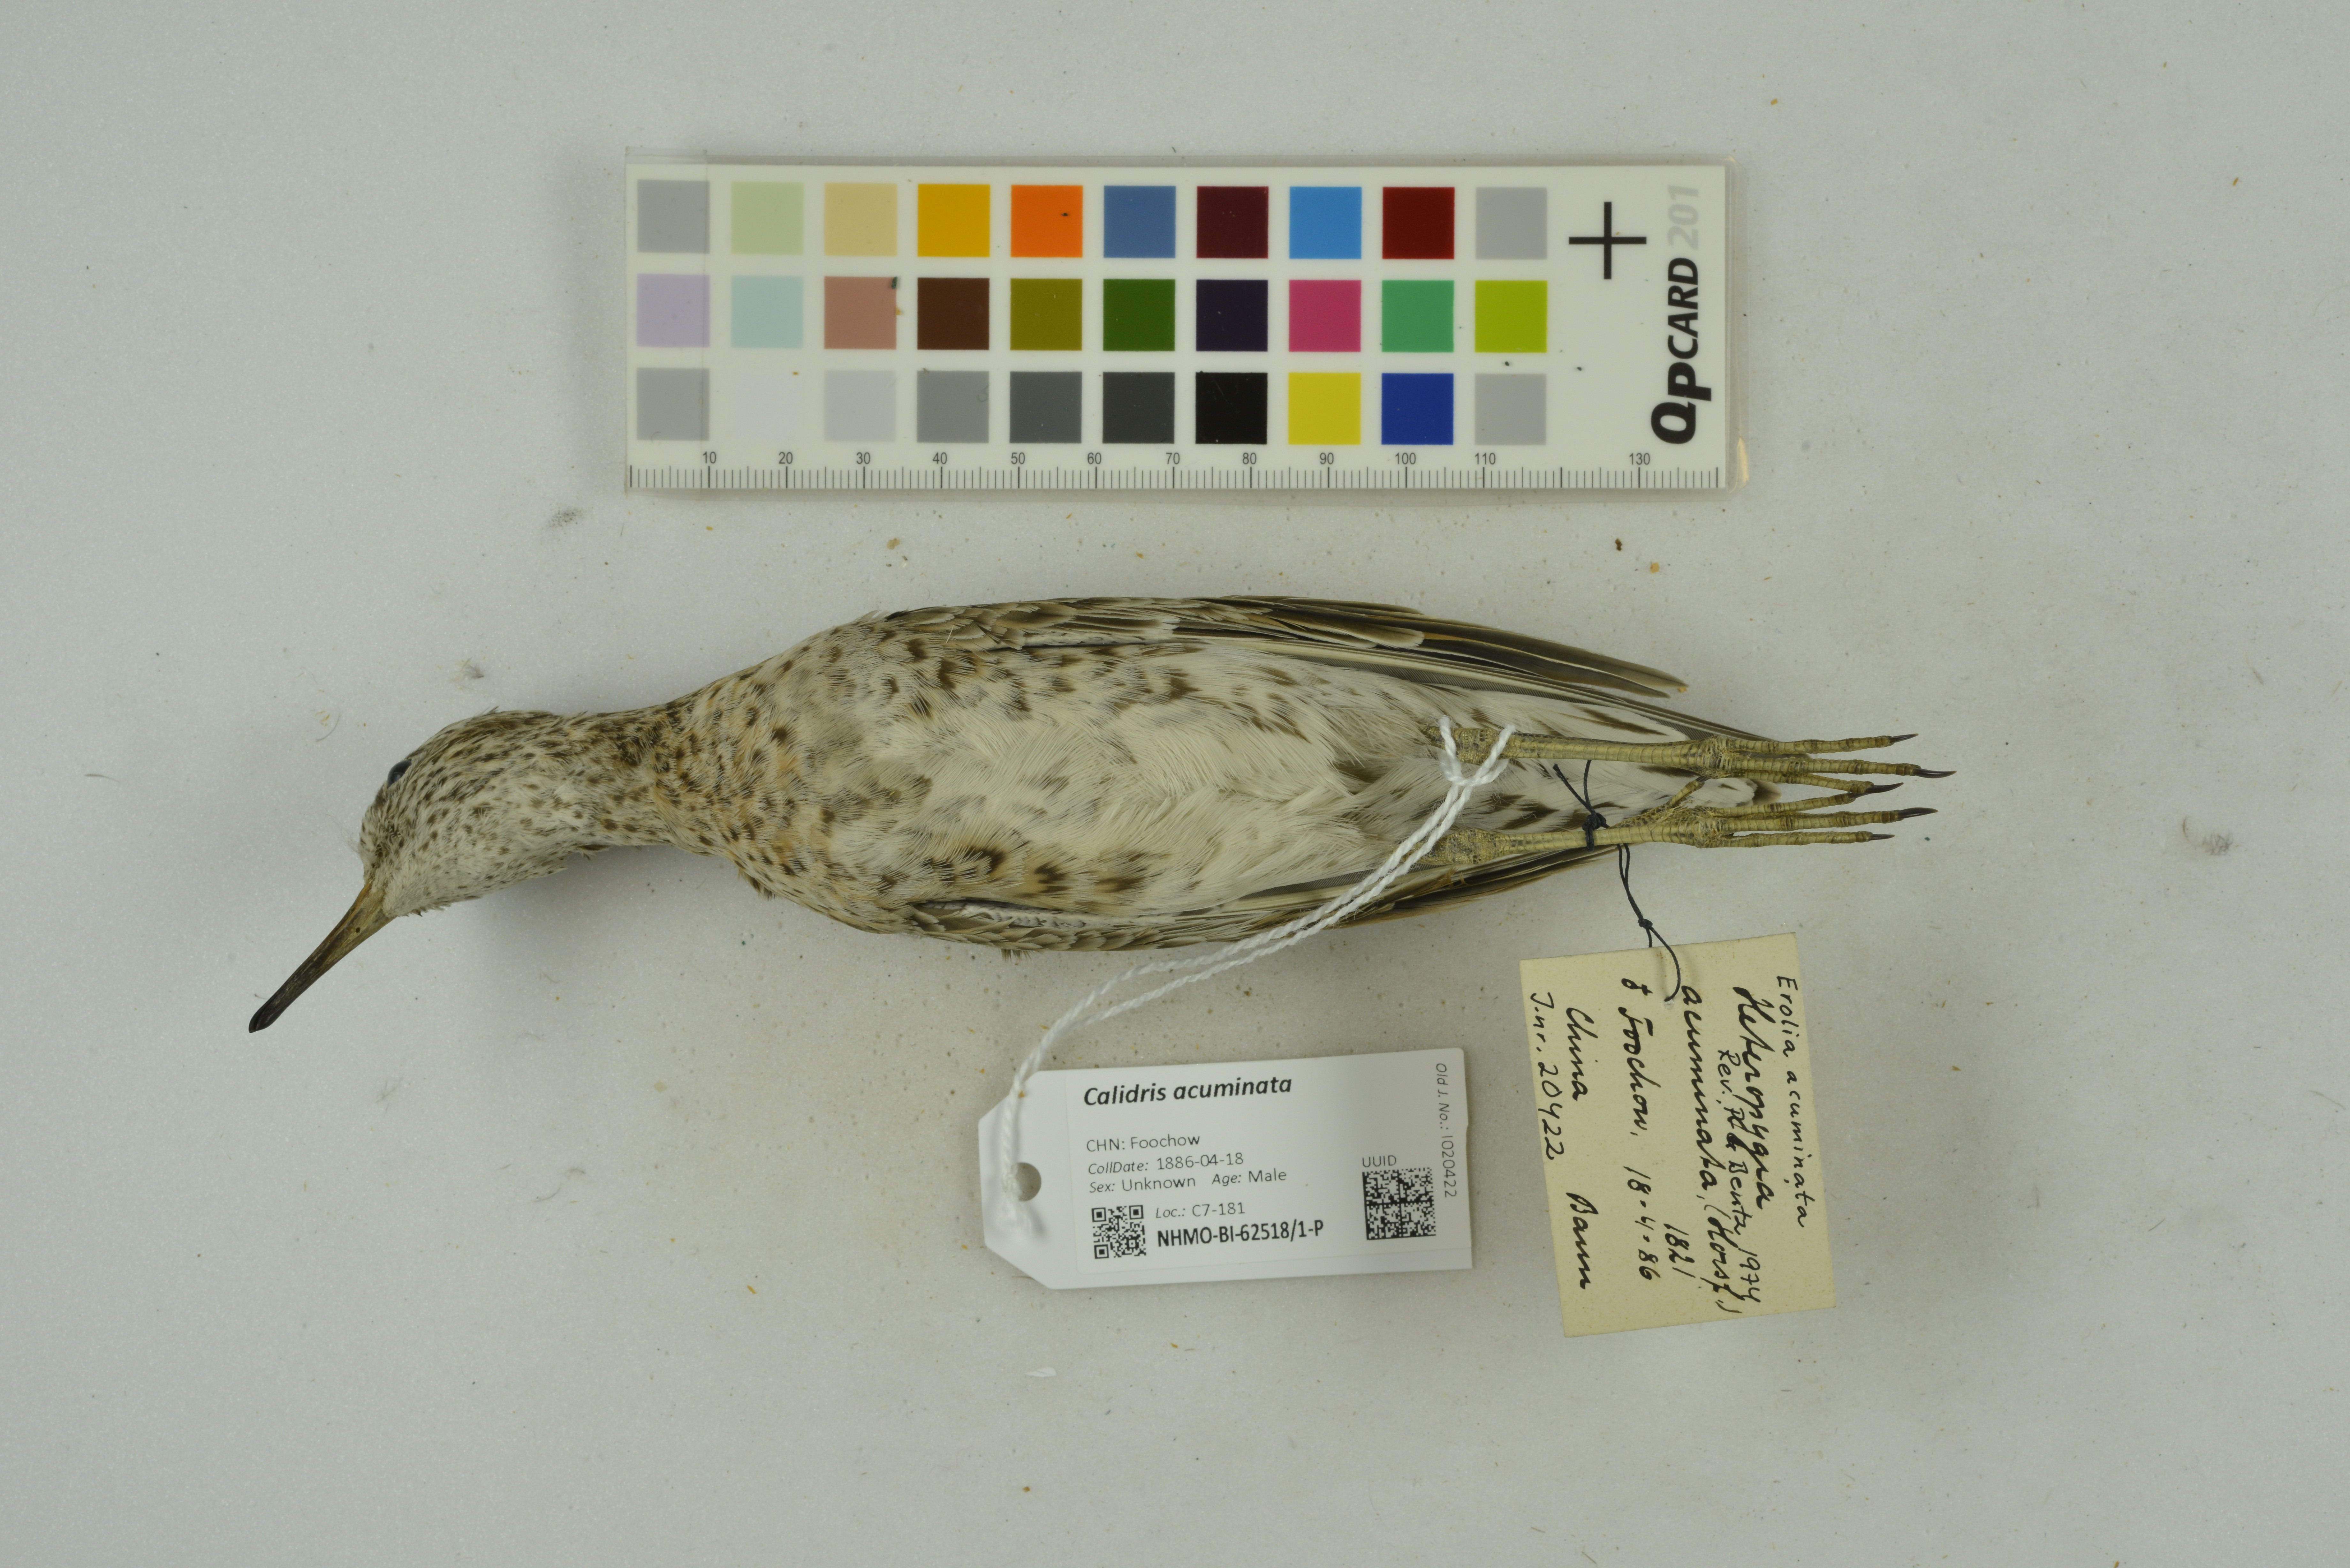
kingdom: Animalia
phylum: Chordata
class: Aves
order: Charadriiformes
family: Scolopacidae
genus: Calidris
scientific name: Calidris acuminata
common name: Sharp-tailed sandpiper
